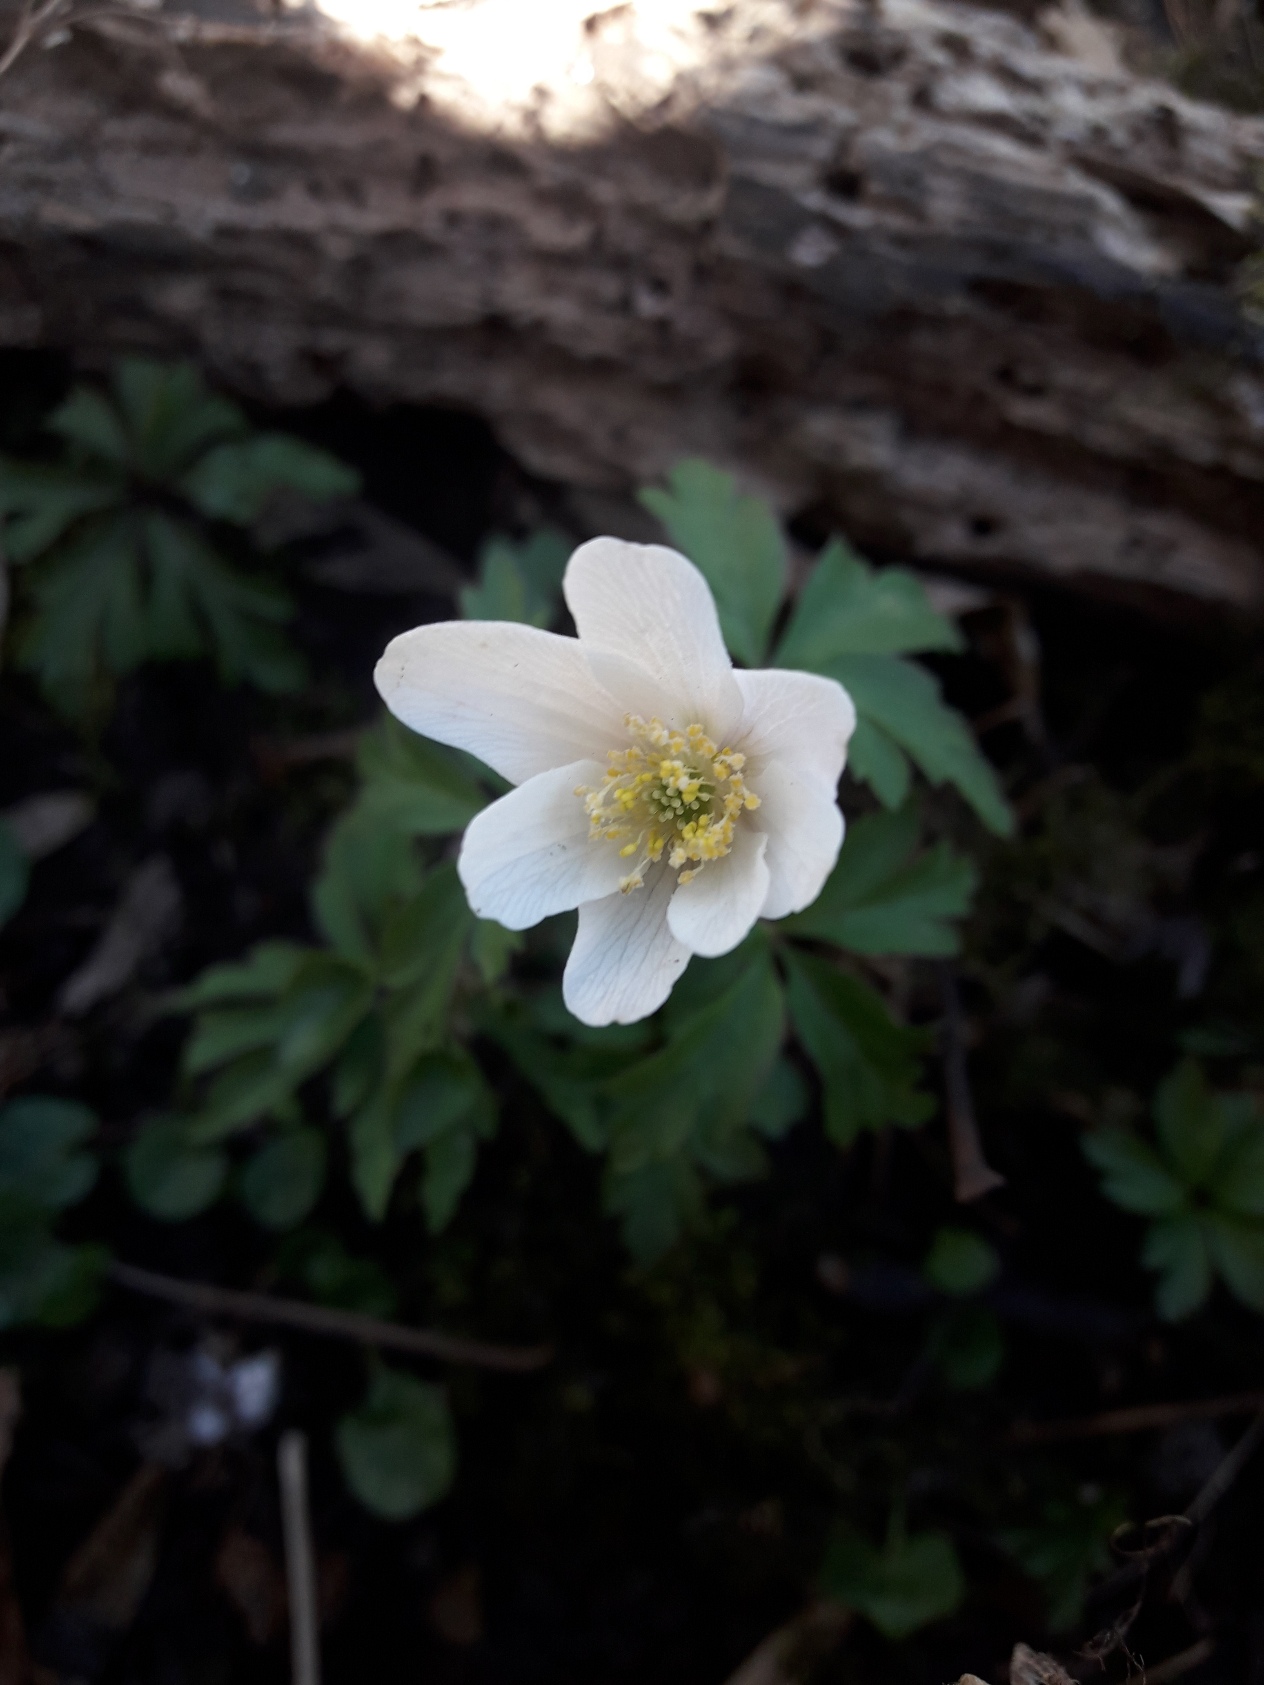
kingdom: Plantae
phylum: Tracheophyta
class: Magnoliopsida
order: Ranunculales
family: Ranunculaceae
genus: Anemone
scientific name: Anemone nemorosa
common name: Hvid anemone
